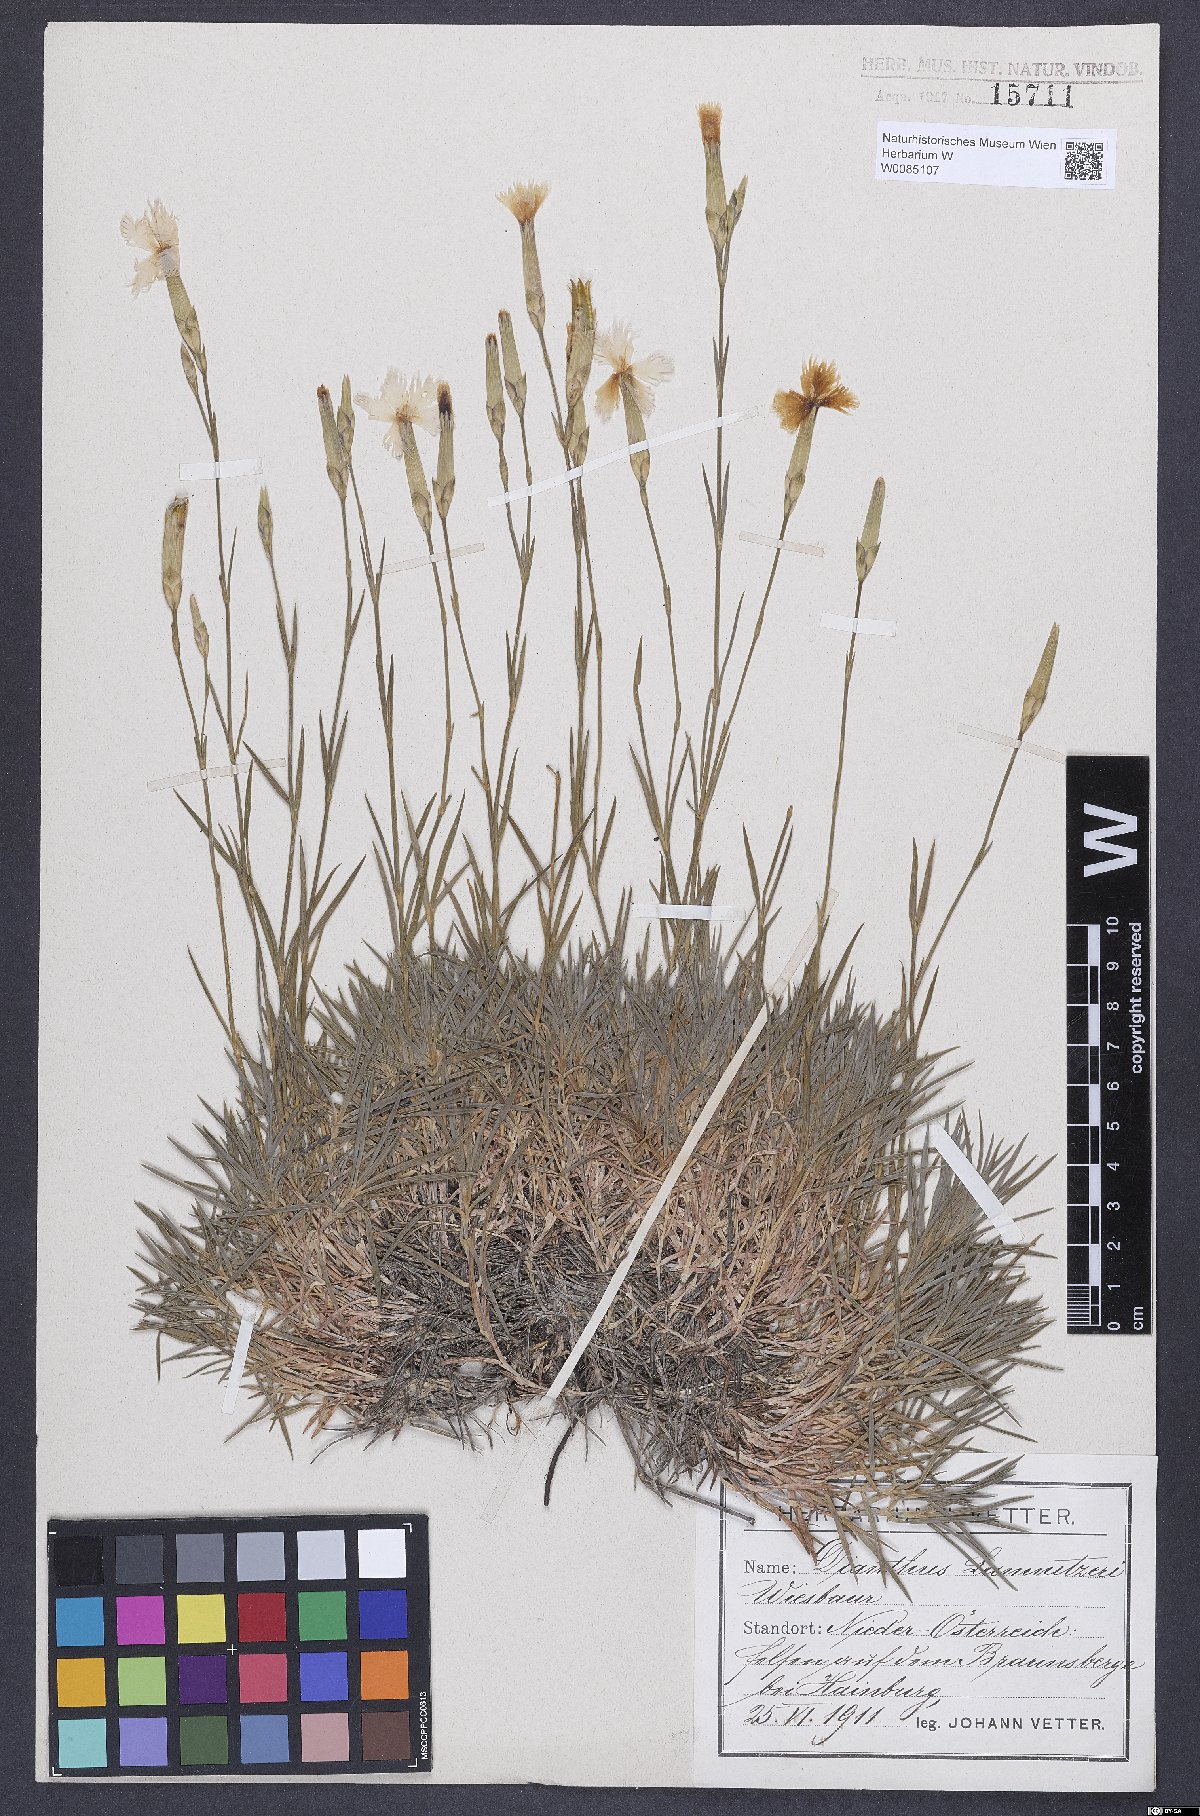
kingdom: Plantae
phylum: Tracheophyta
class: Magnoliopsida
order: Caryophyllales
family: Caryophyllaceae
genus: Dianthus
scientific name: Dianthus praecox
